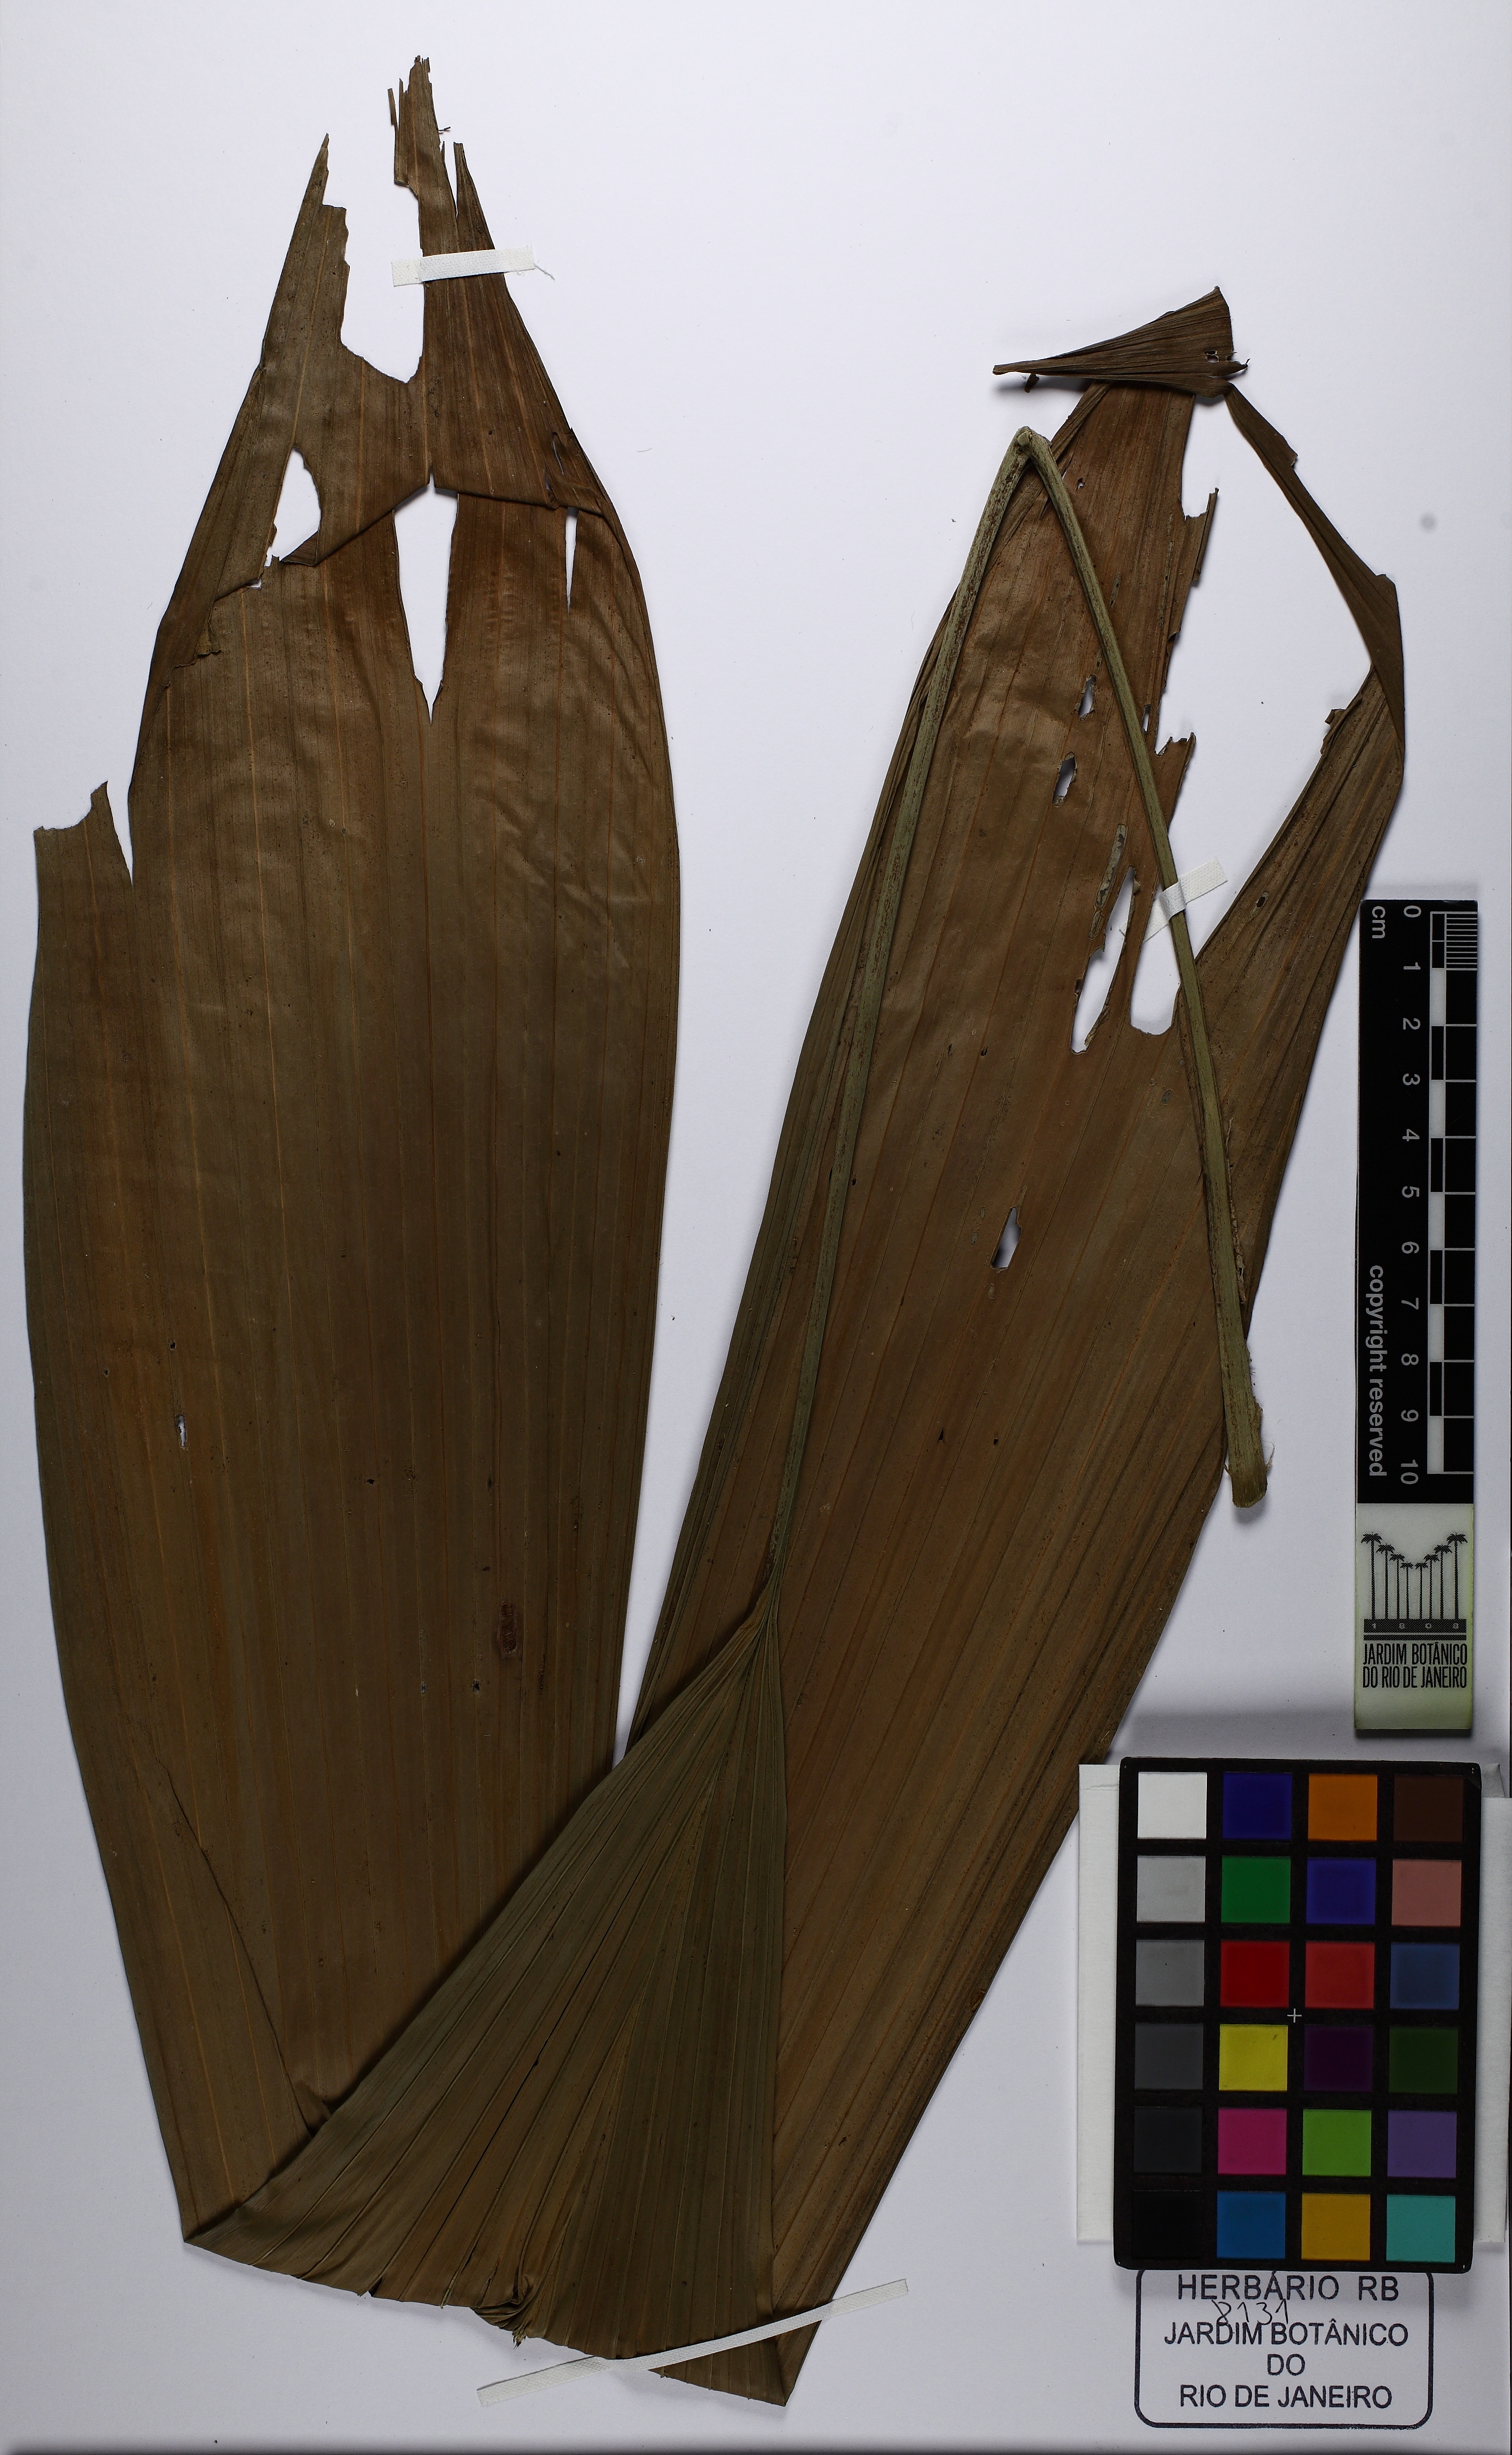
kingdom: Plantae
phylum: Tracheophyta
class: Liliopsida
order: Pandanales
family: Cyclanthaceae
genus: Asplundia
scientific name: Asplundia brachypus
